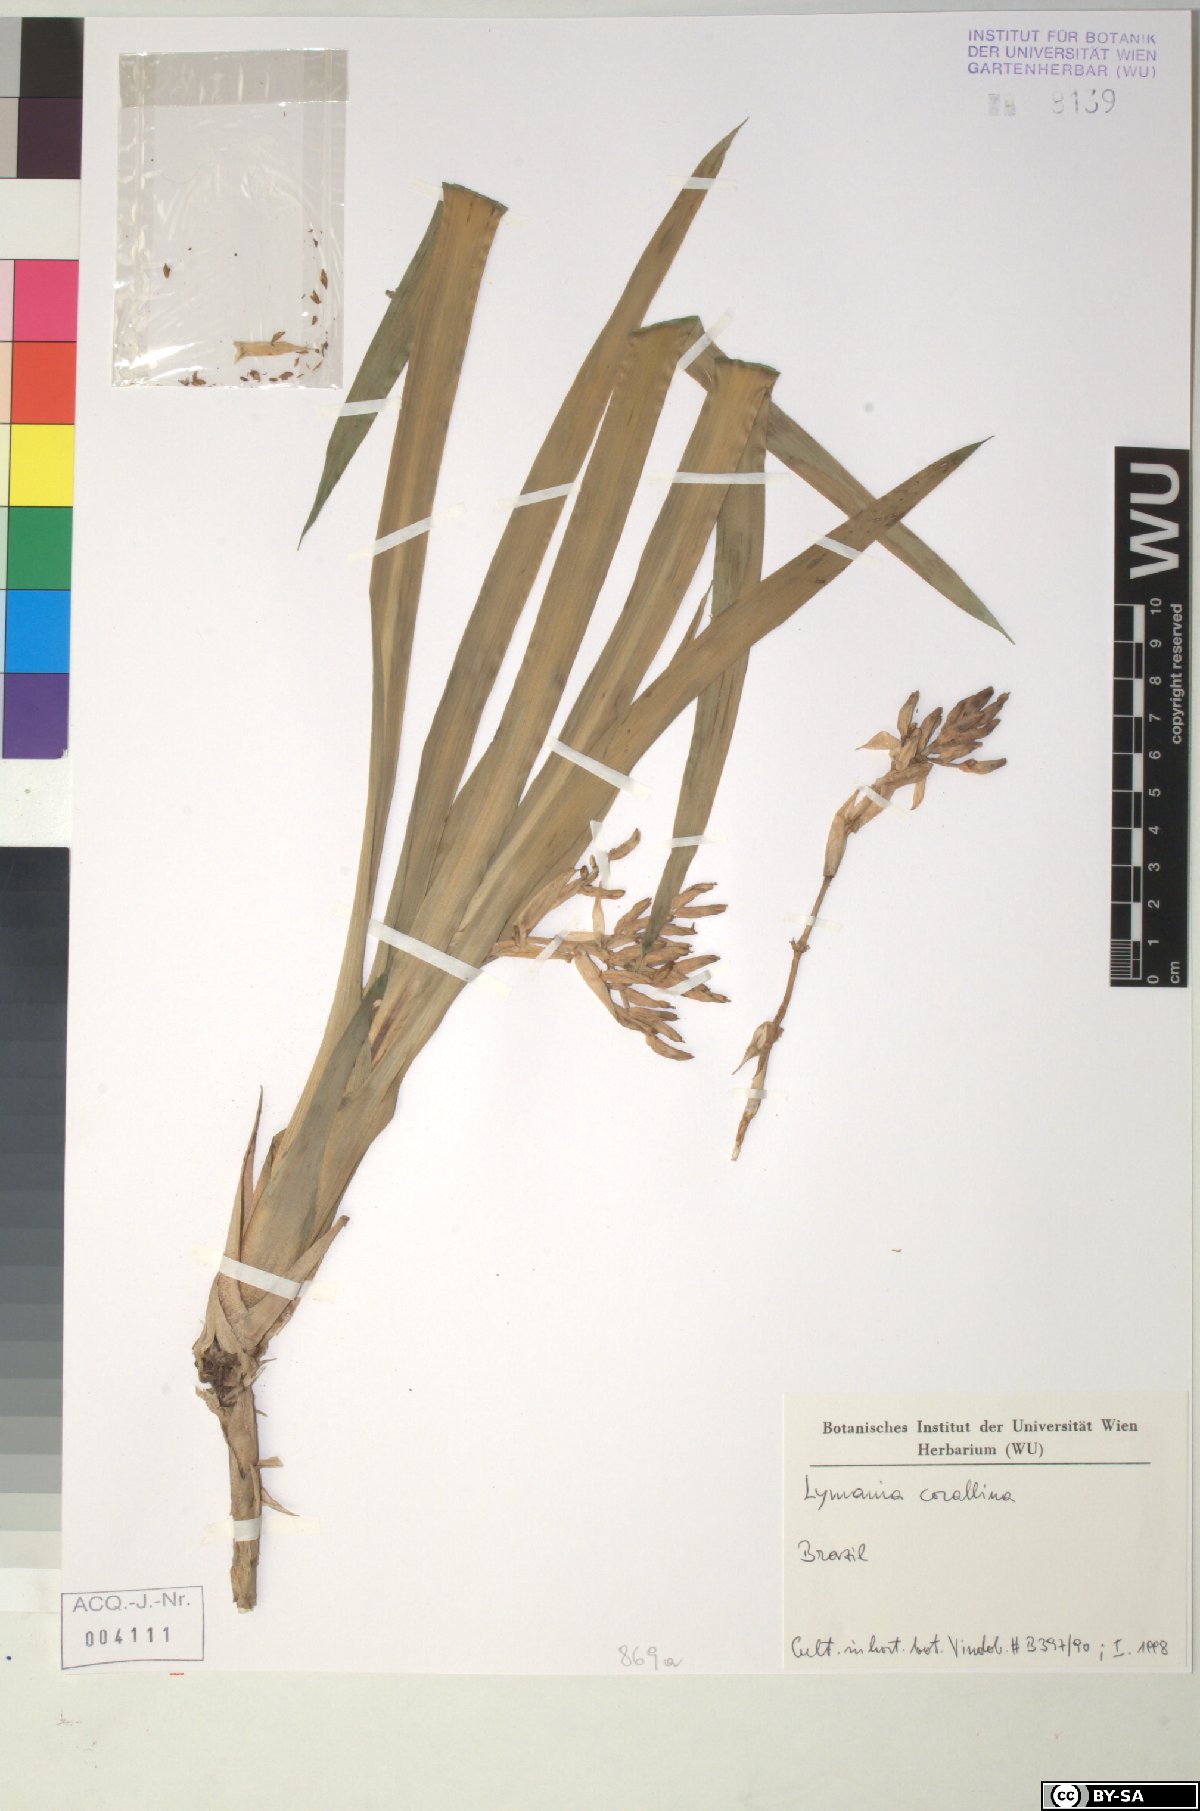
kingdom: Plantae
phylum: Tracheophyta
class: Liliopsida
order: Poales
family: Bromeliaceae
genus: Lymania
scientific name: Lymania corallina
